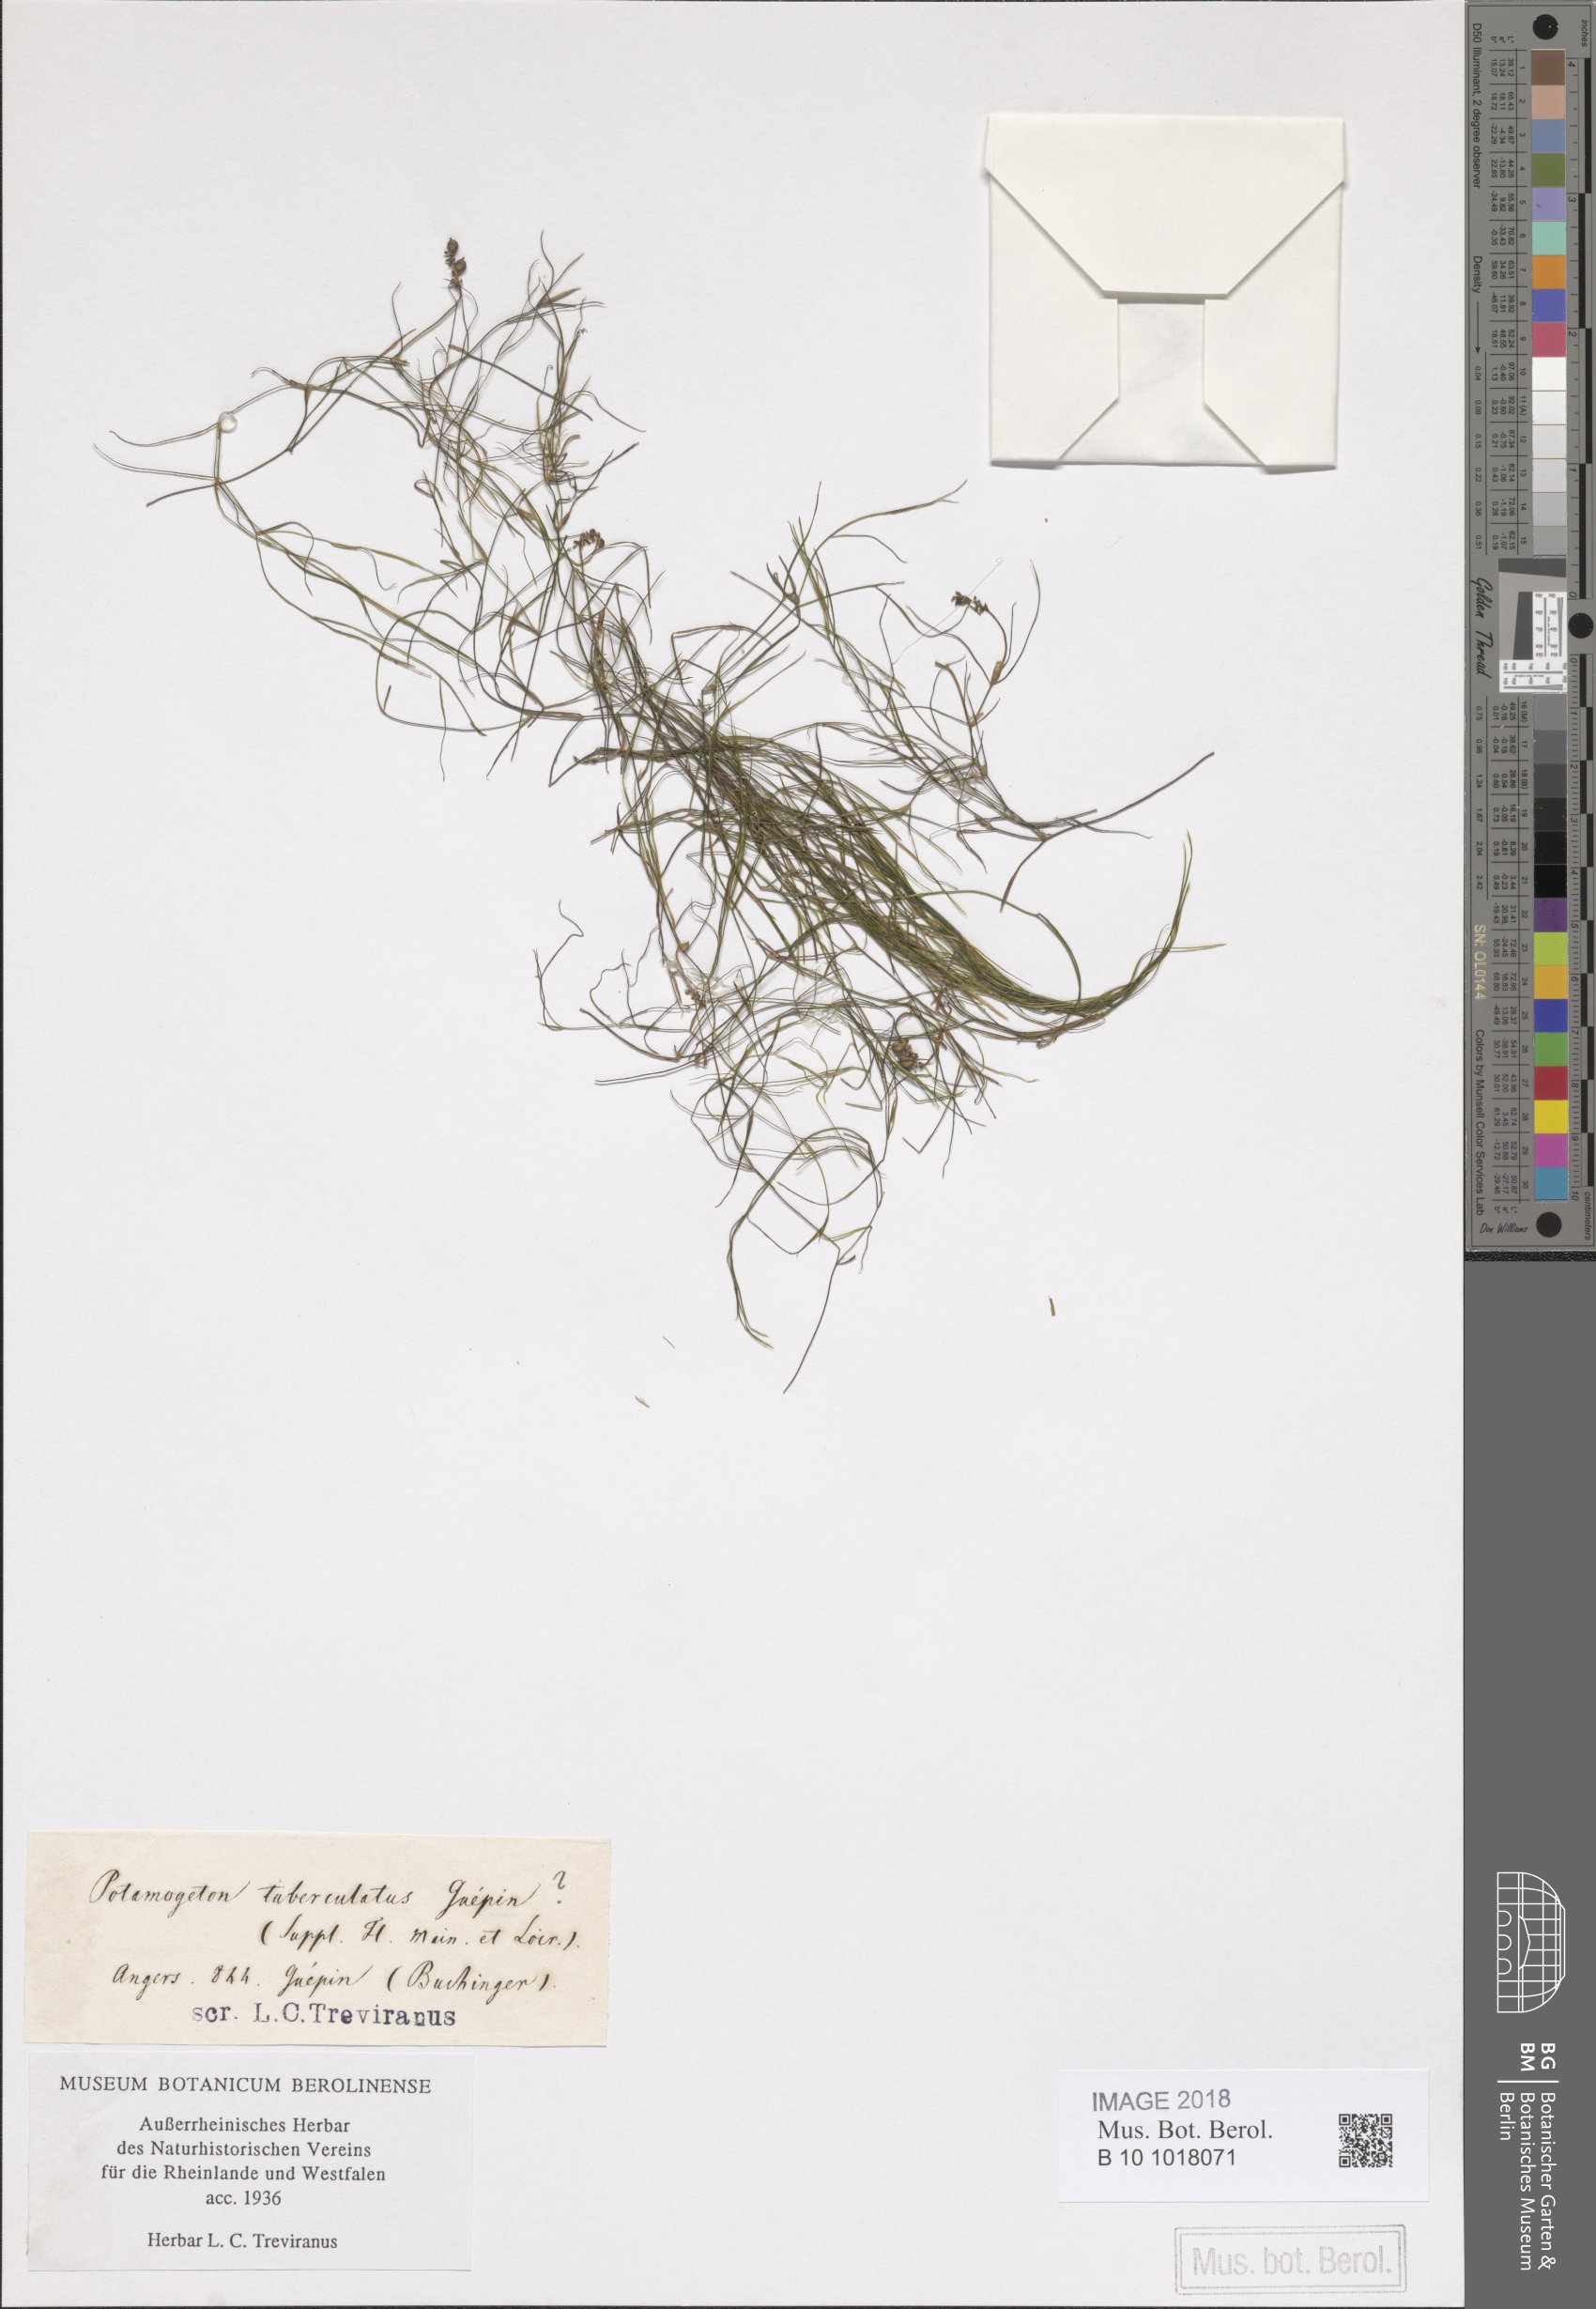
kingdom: Plantae
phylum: Tracheophyta
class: Liliopsida
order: Alismatales
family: Potamogetonaceae
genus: Potamogeton
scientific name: Potamogeton trichoides
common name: Hairlike pondweed
